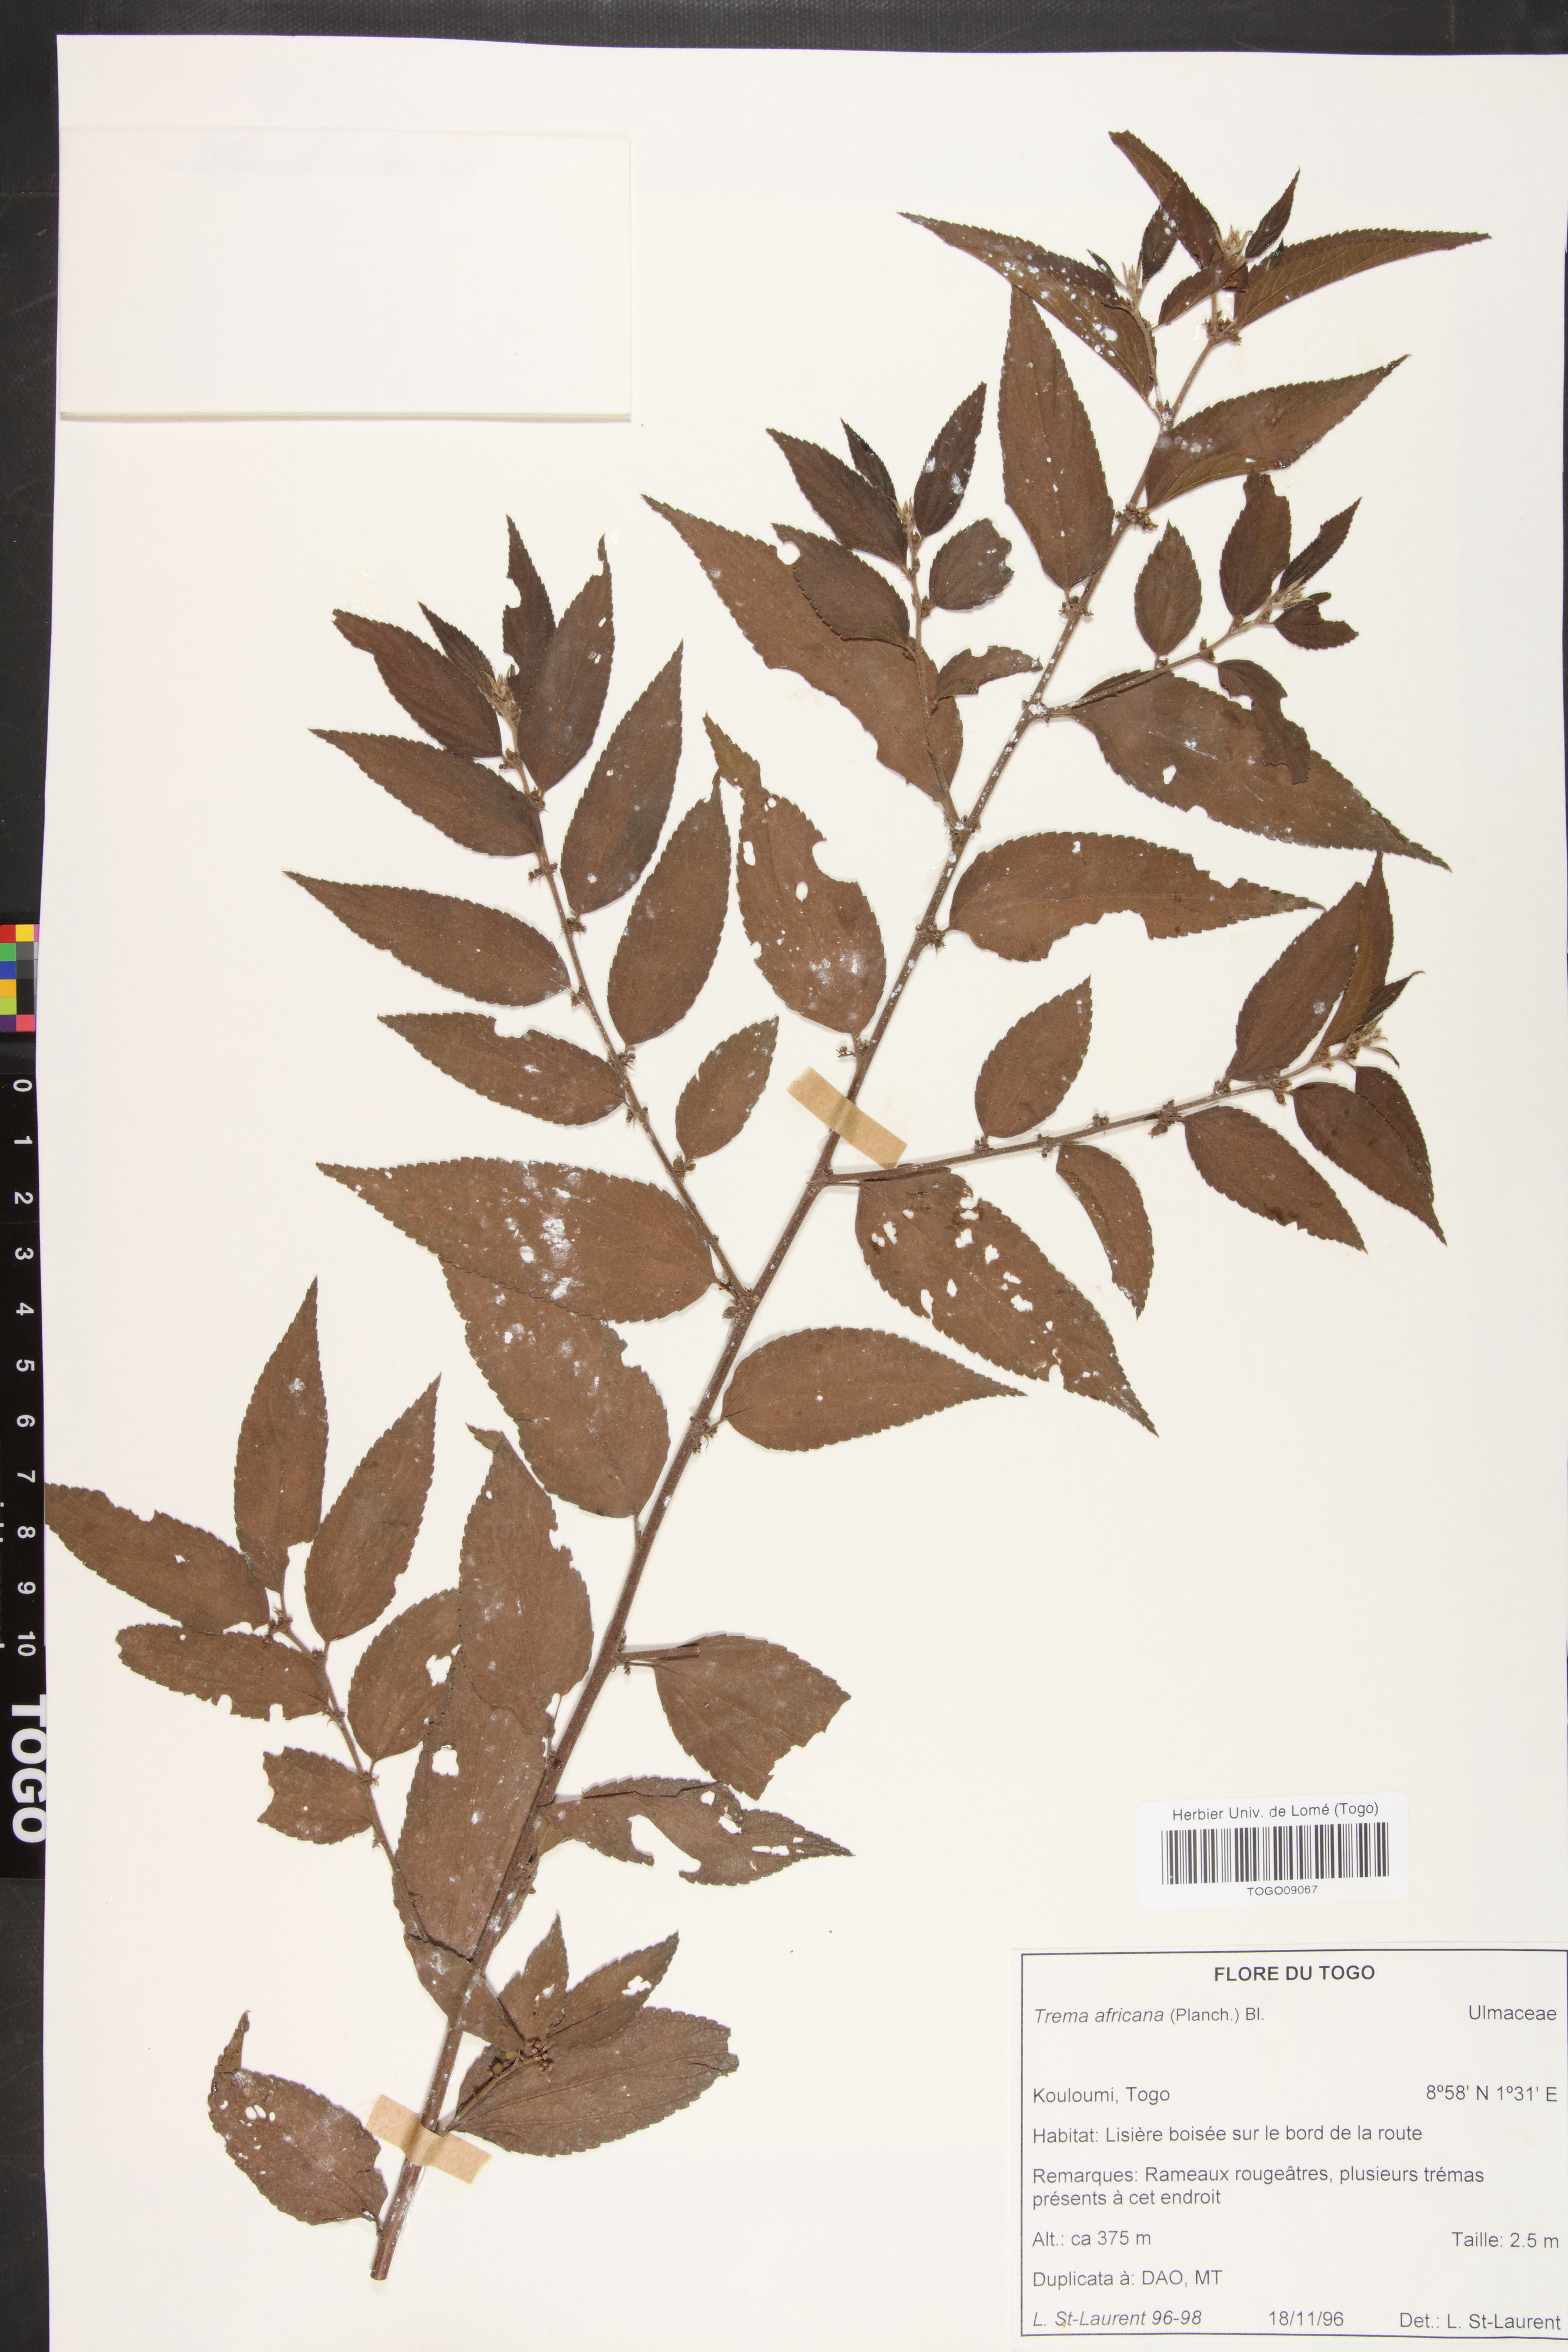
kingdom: Plantae
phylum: Tracheophyta
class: Magnoliopsida
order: Rosales
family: Cannabaceae
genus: Trema
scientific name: Trema orientale
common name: Indian charcoal tree
